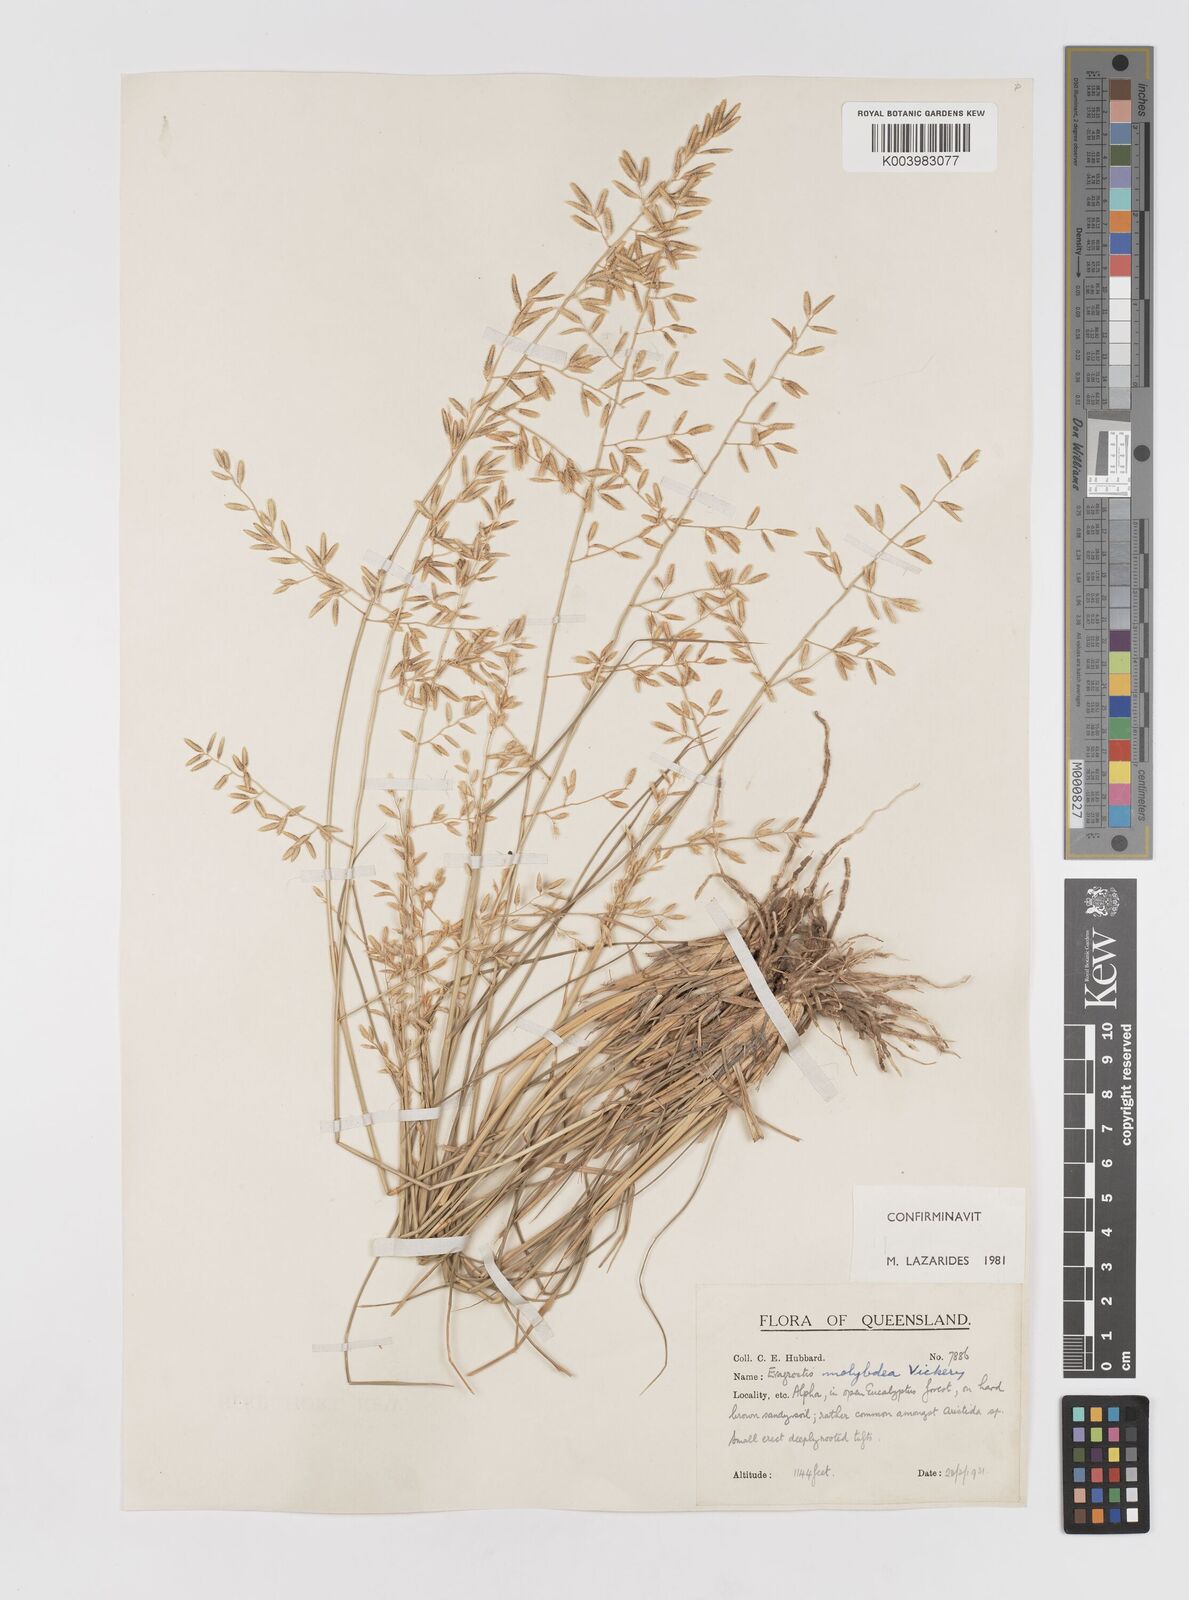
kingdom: Plantae
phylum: Tracheophyta
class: Liliopsida
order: Poales
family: Poaceae
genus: Eragrostis
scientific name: Eragrostis leptostachya
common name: Australian lovegrass
